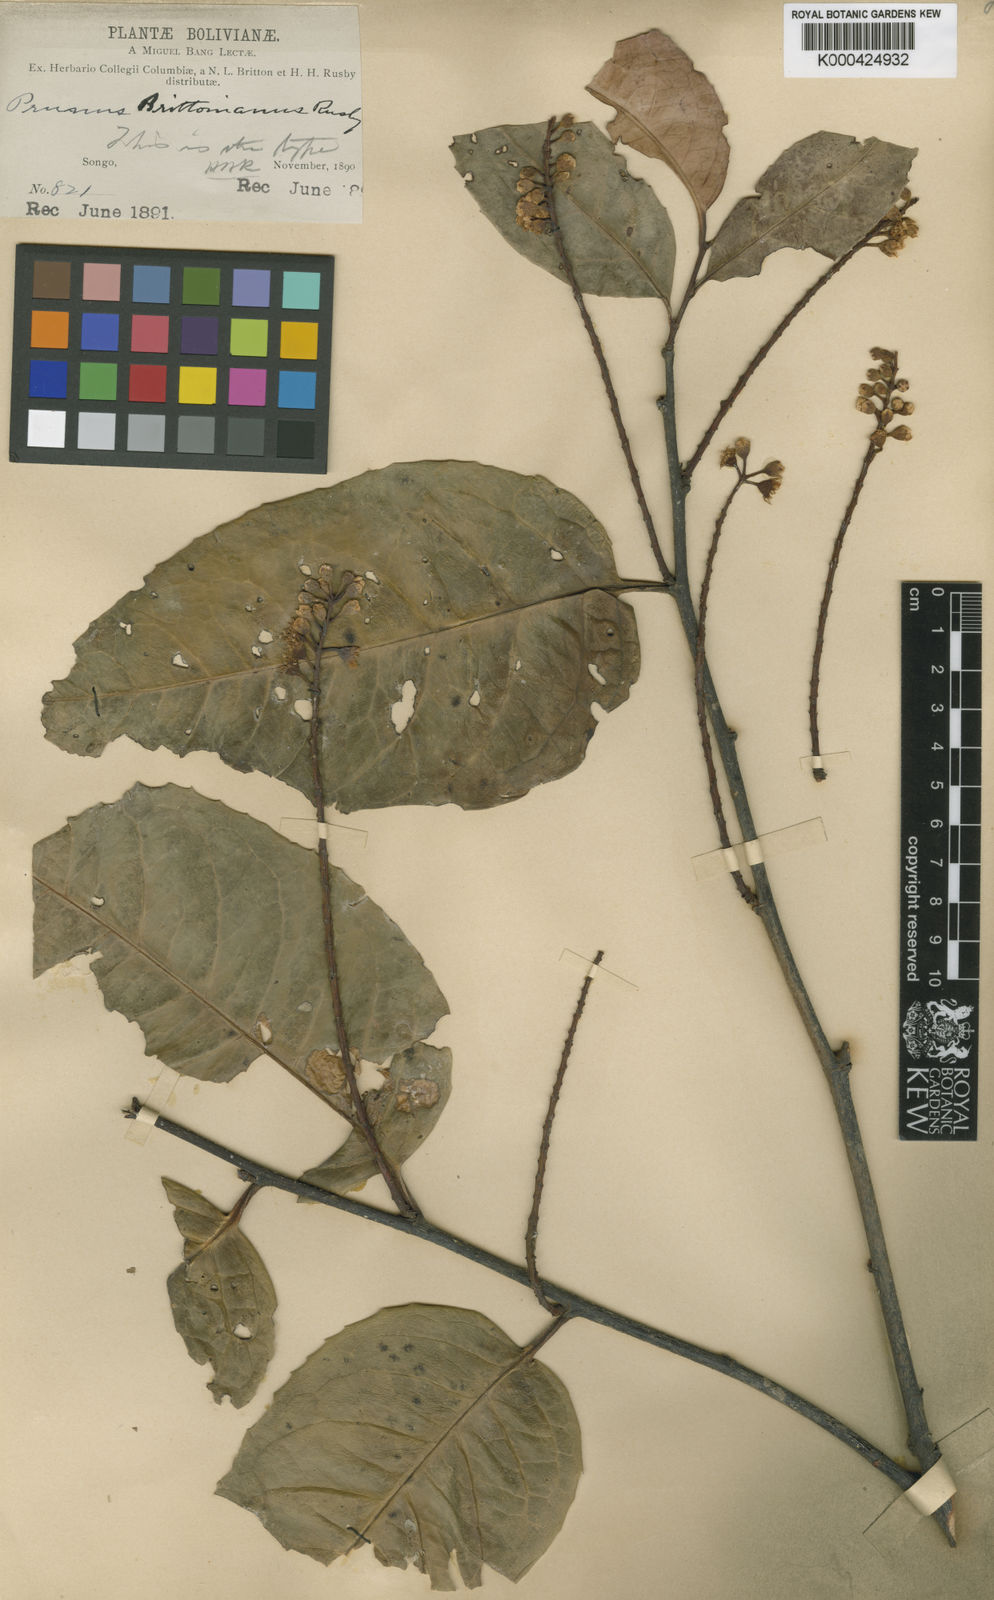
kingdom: Plantae
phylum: Tracheophyta
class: Magnoliopsida
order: Rosales
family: Rosaceae
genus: Prunus
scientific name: Prunus brittoniana
